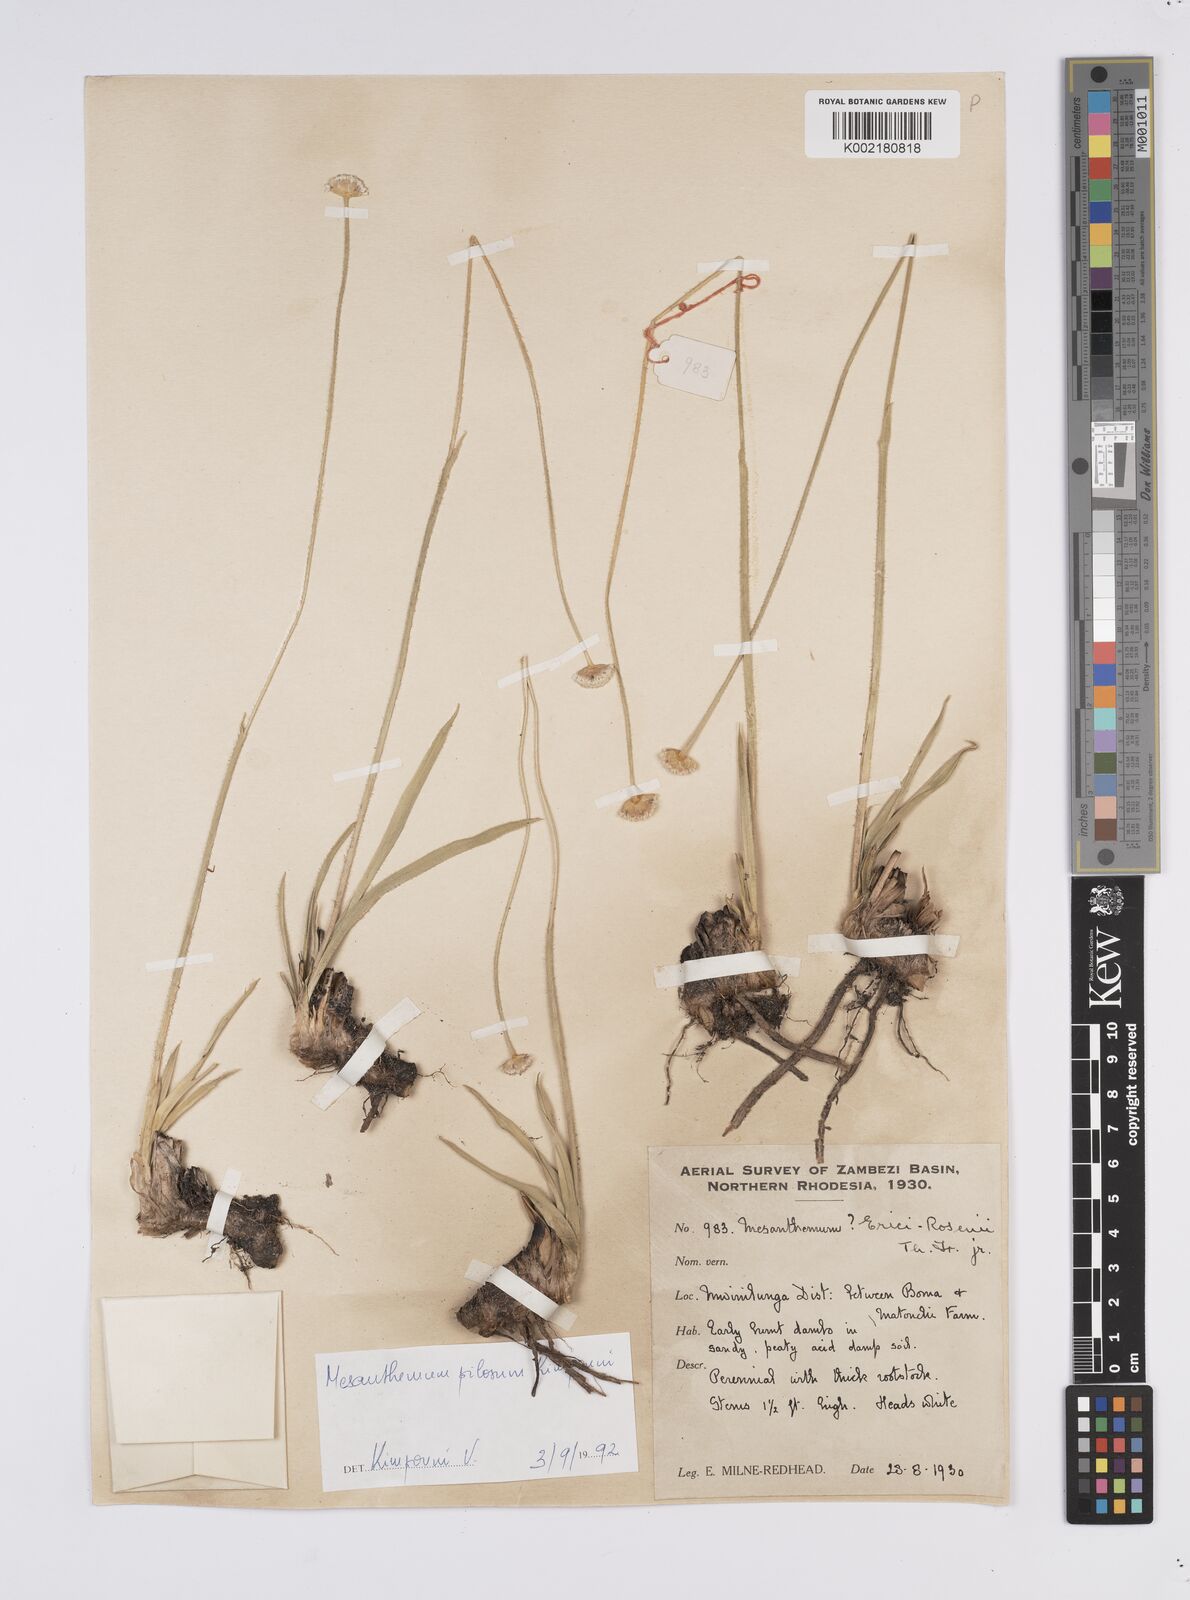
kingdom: Plantae
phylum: Tracheophyta
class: Liliopsida
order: Poales
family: Eriocaulaceae
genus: Mesanthemum
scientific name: Mesanthemum pilosum
